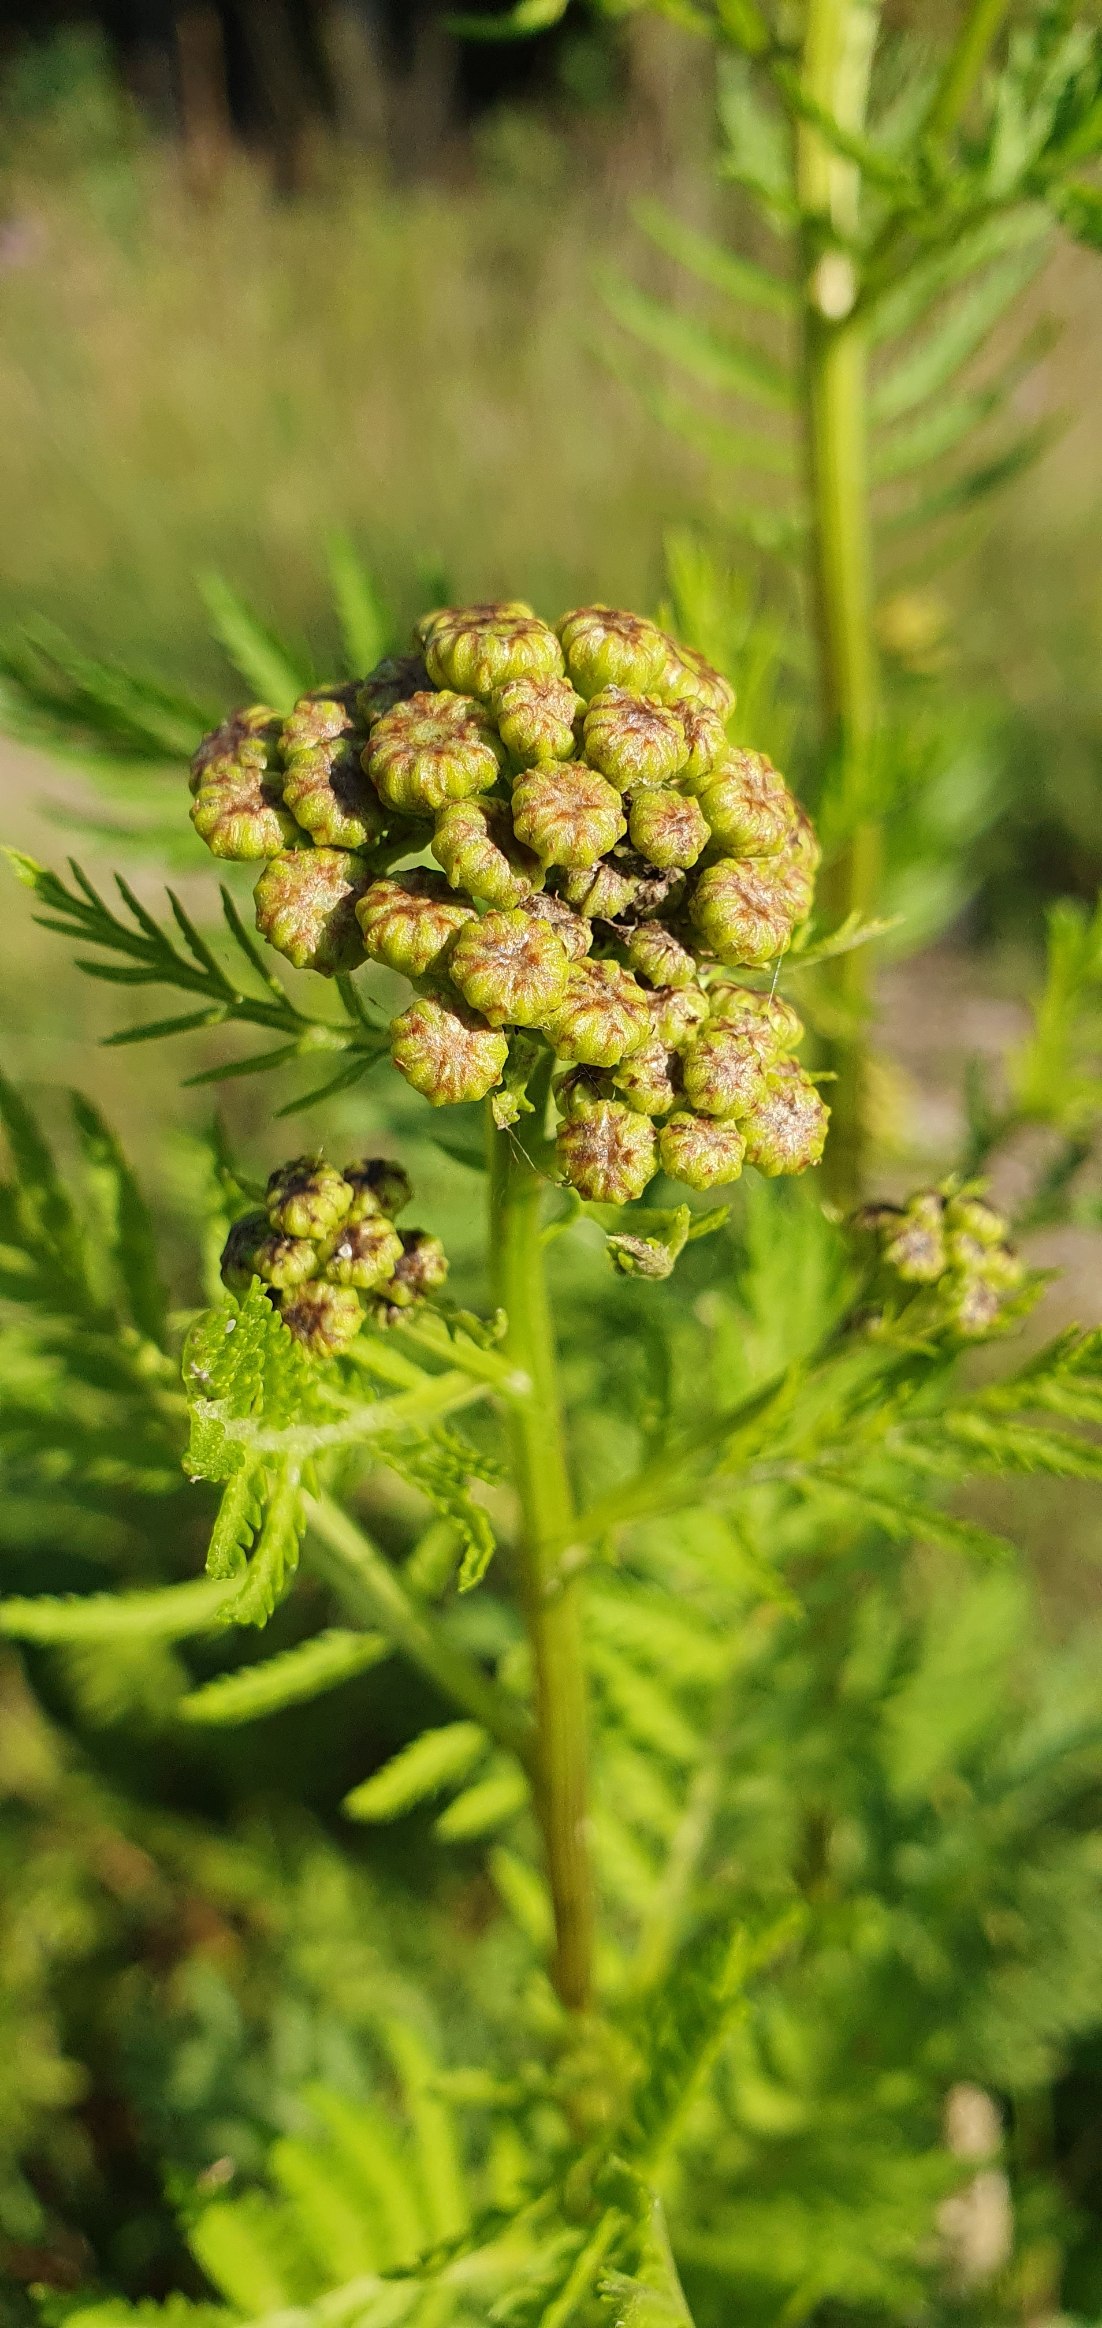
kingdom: Plantae
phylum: Tracheophyta
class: Magnoliopsida
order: Asterales
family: Asteraceae
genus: Tanacetum
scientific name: Tanacetum vulgare
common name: Rejnfan
